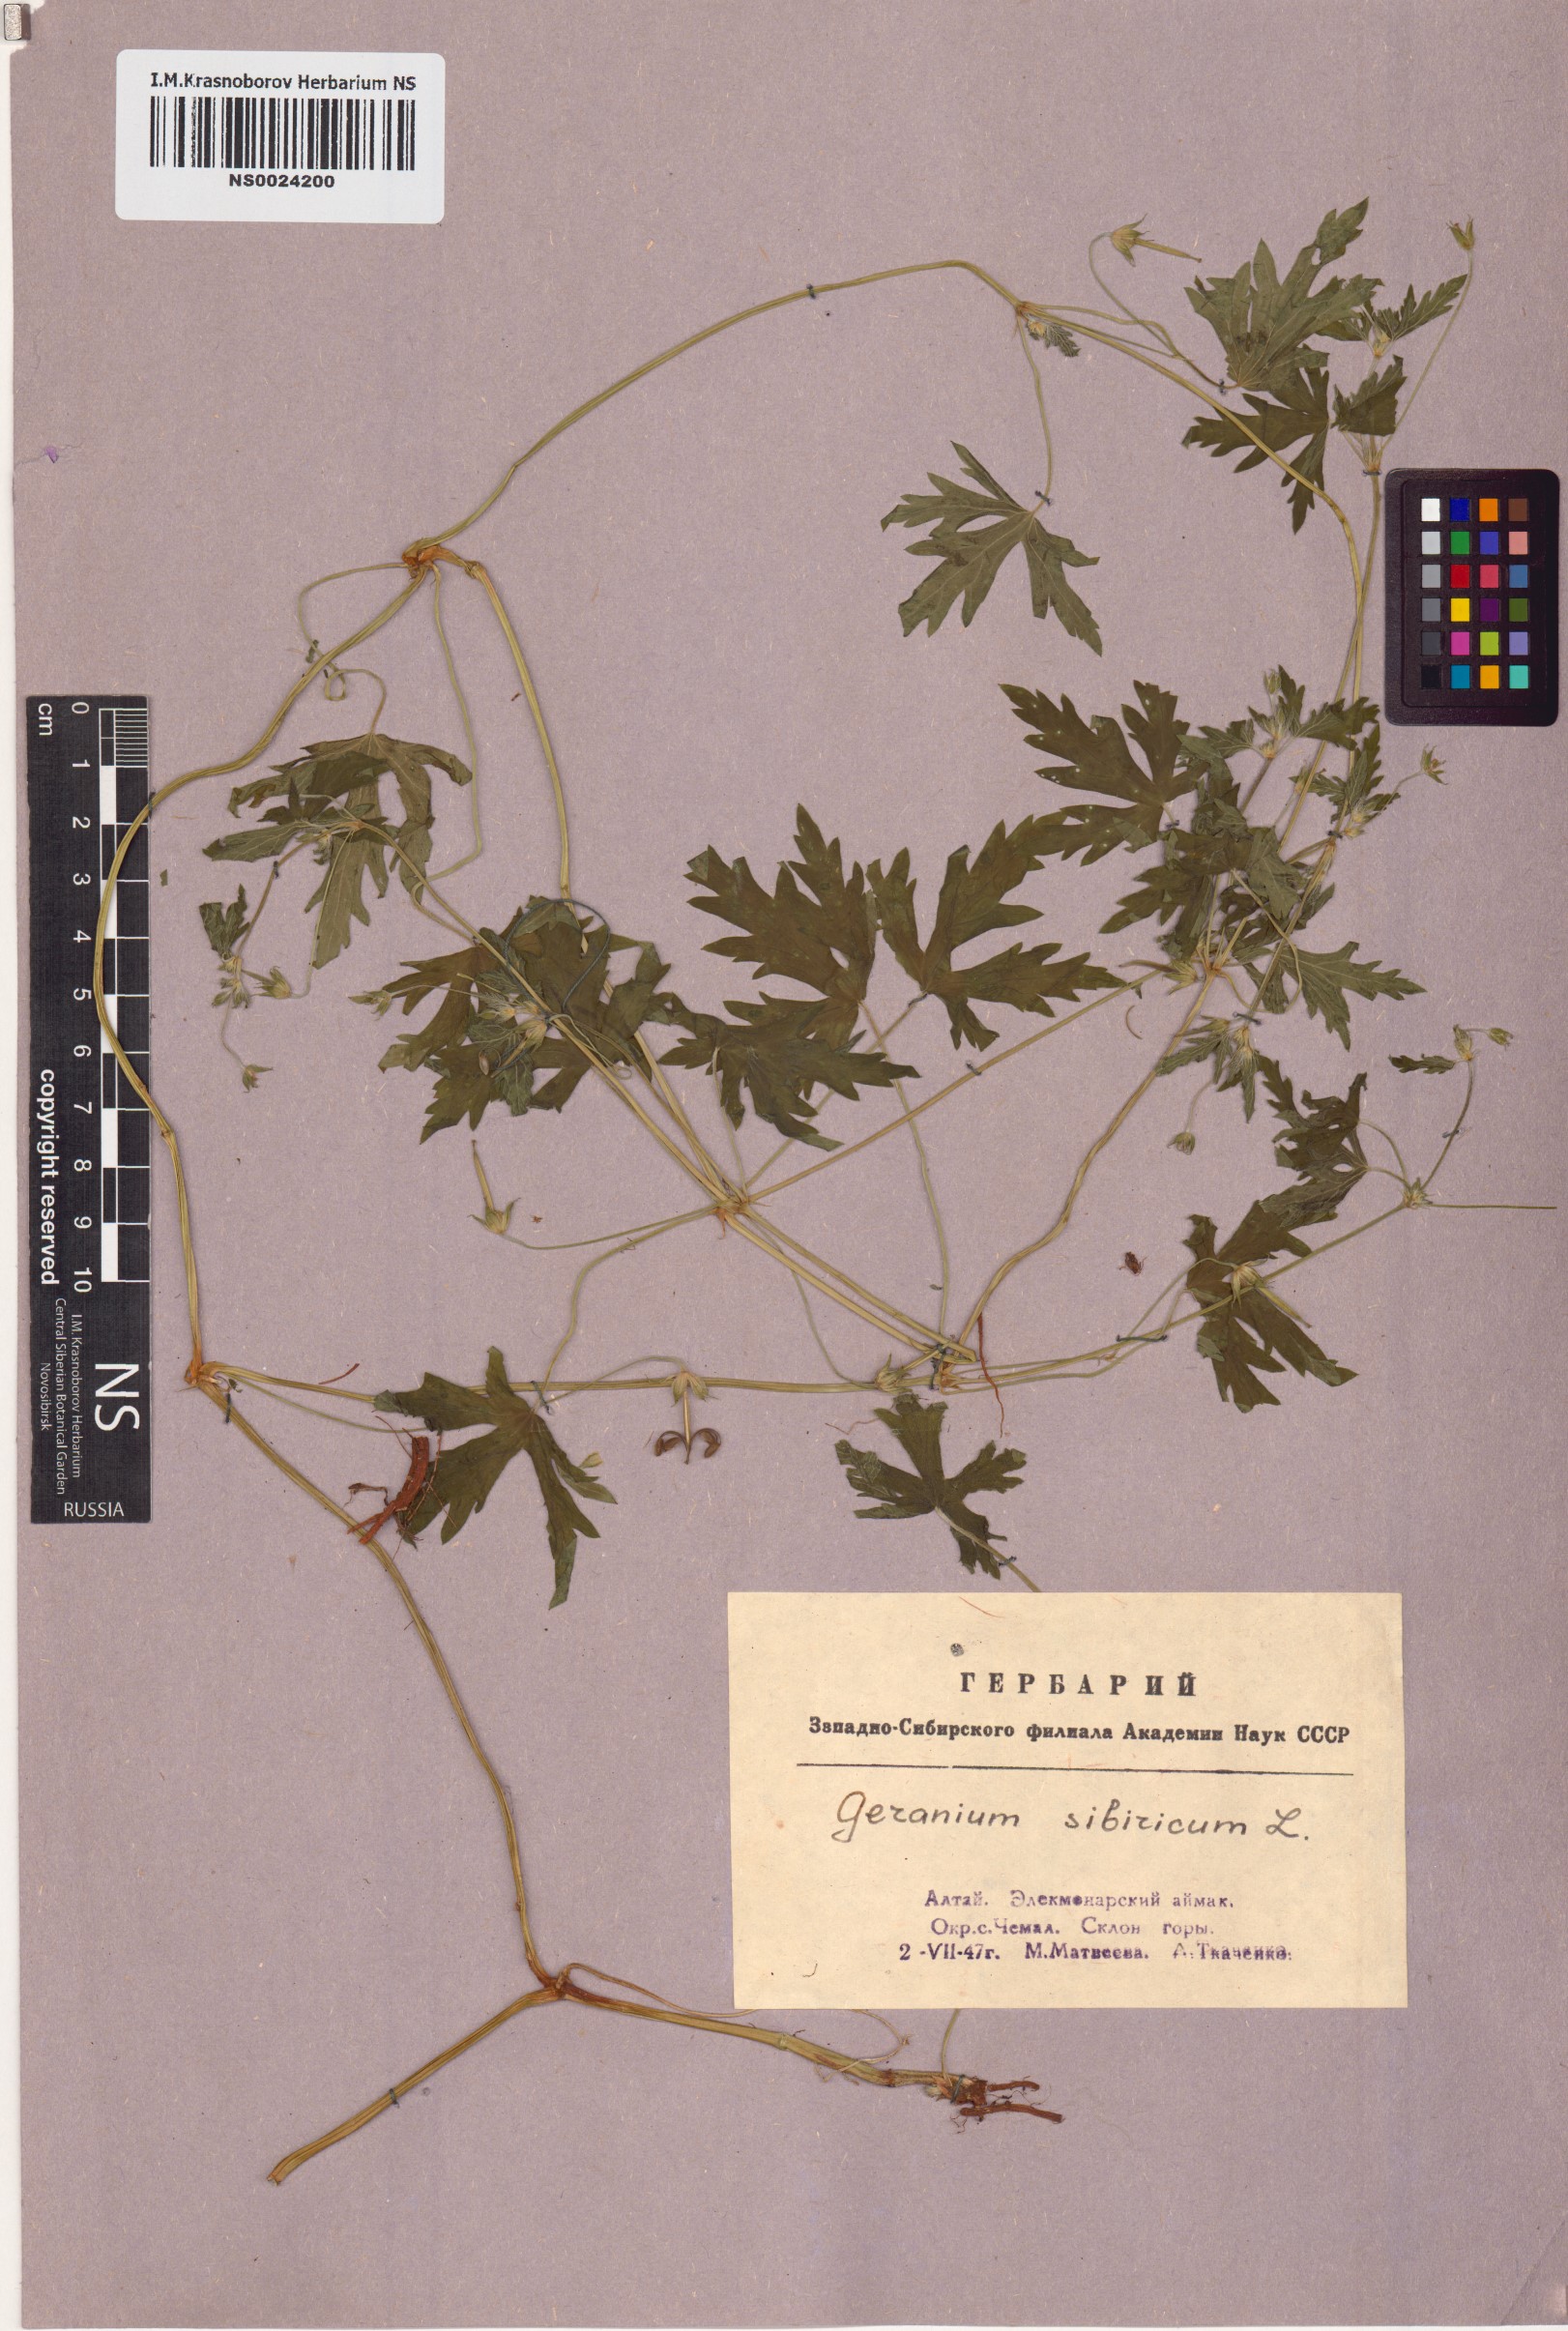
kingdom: Plantae
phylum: Tracheophyta
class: Magnoliopsida
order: Geraniales
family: Geraniaceae
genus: Geranium
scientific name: Geranium sibiricum
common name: Siberian crane's-bill
